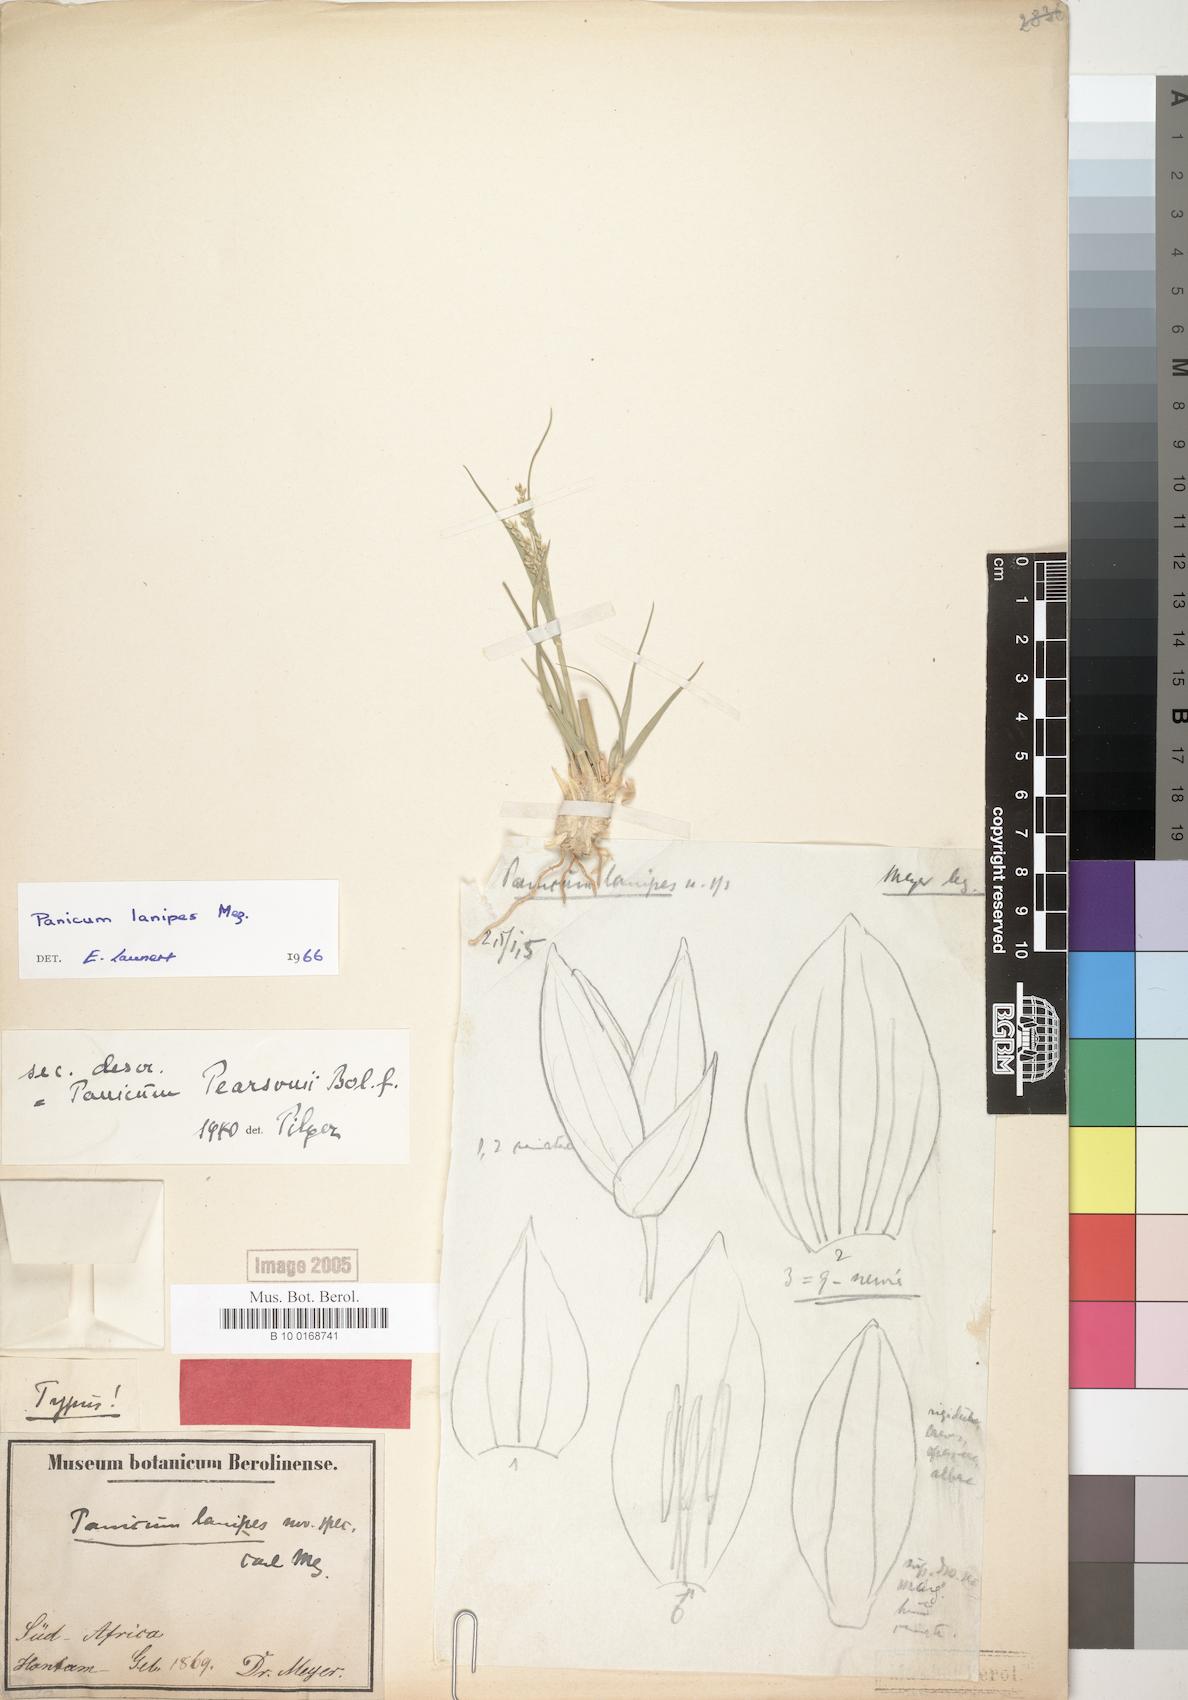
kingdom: Plantae
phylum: Tracheophyta
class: Liliopsida
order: Poales
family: Poaceae
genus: Panicum
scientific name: Panicum lanipes
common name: Wolvoet panicum
